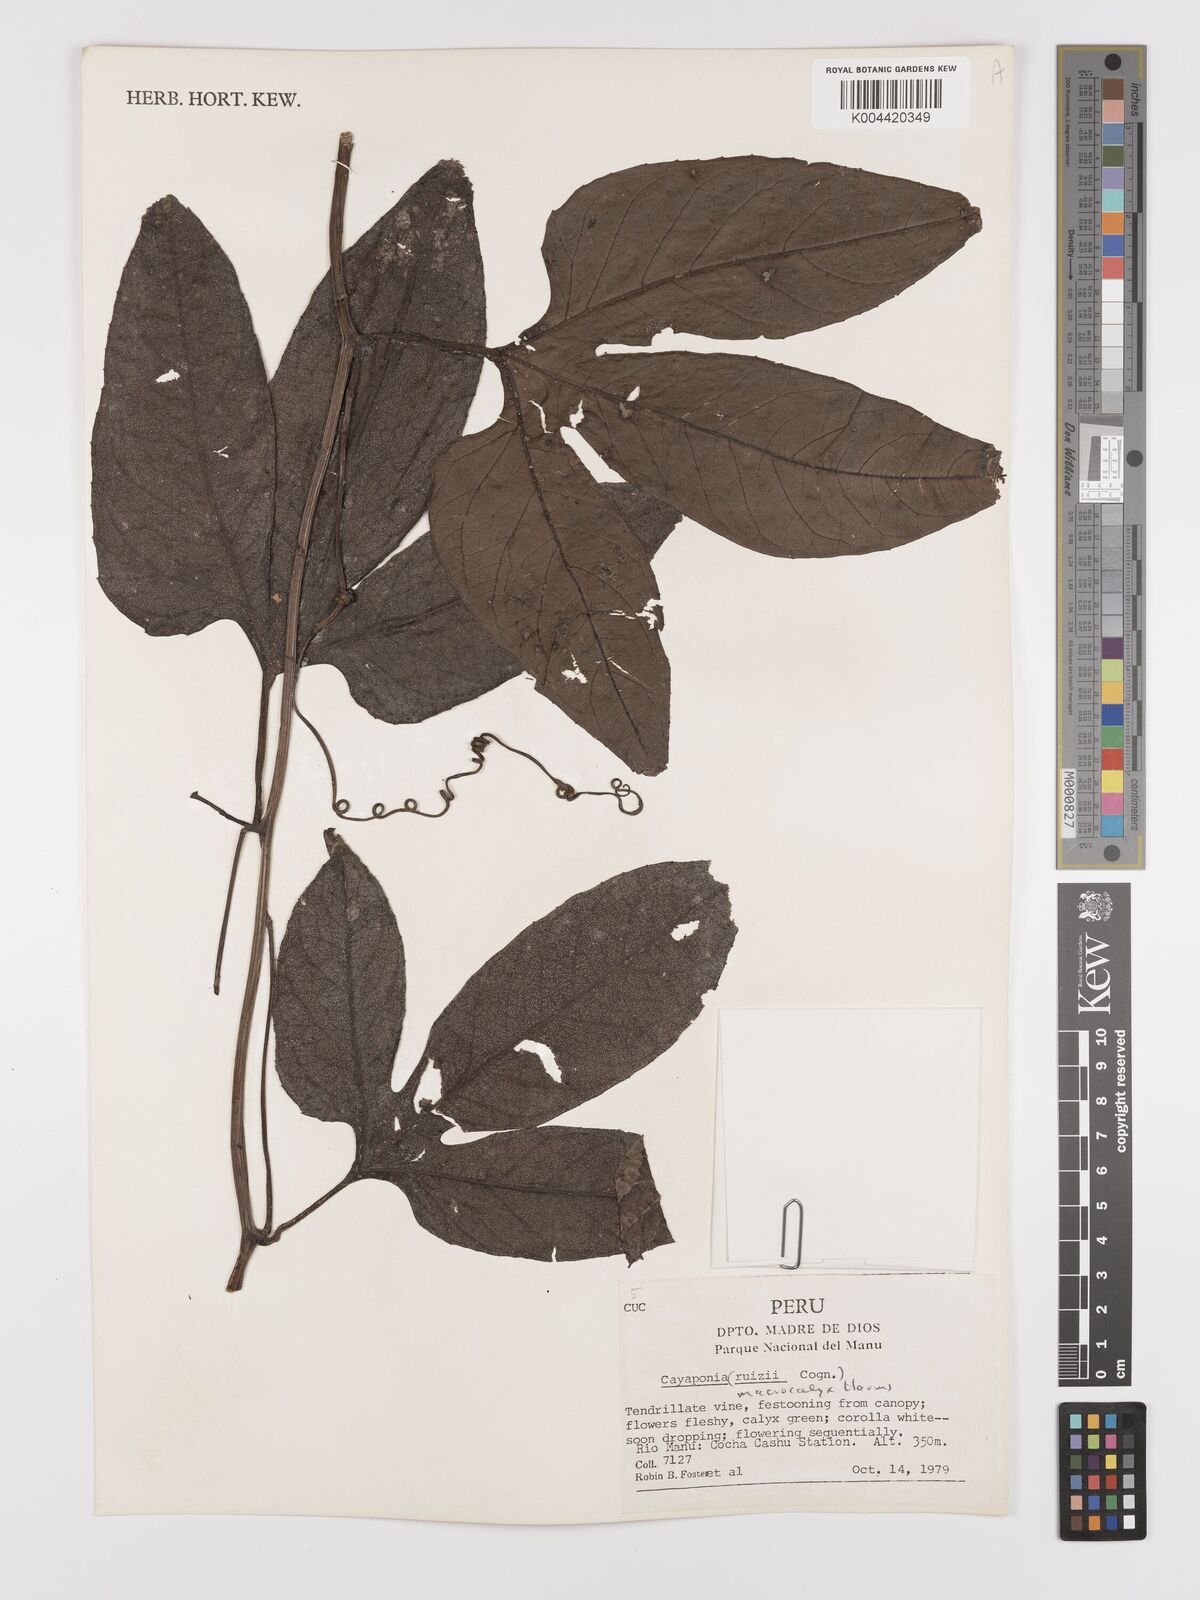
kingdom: Plantae
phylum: Tracheophyta
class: Magnoliopsida
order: Cucurbitales
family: Cucurbitaceae
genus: Cayaponia
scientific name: Cayaponia macrocalyx
